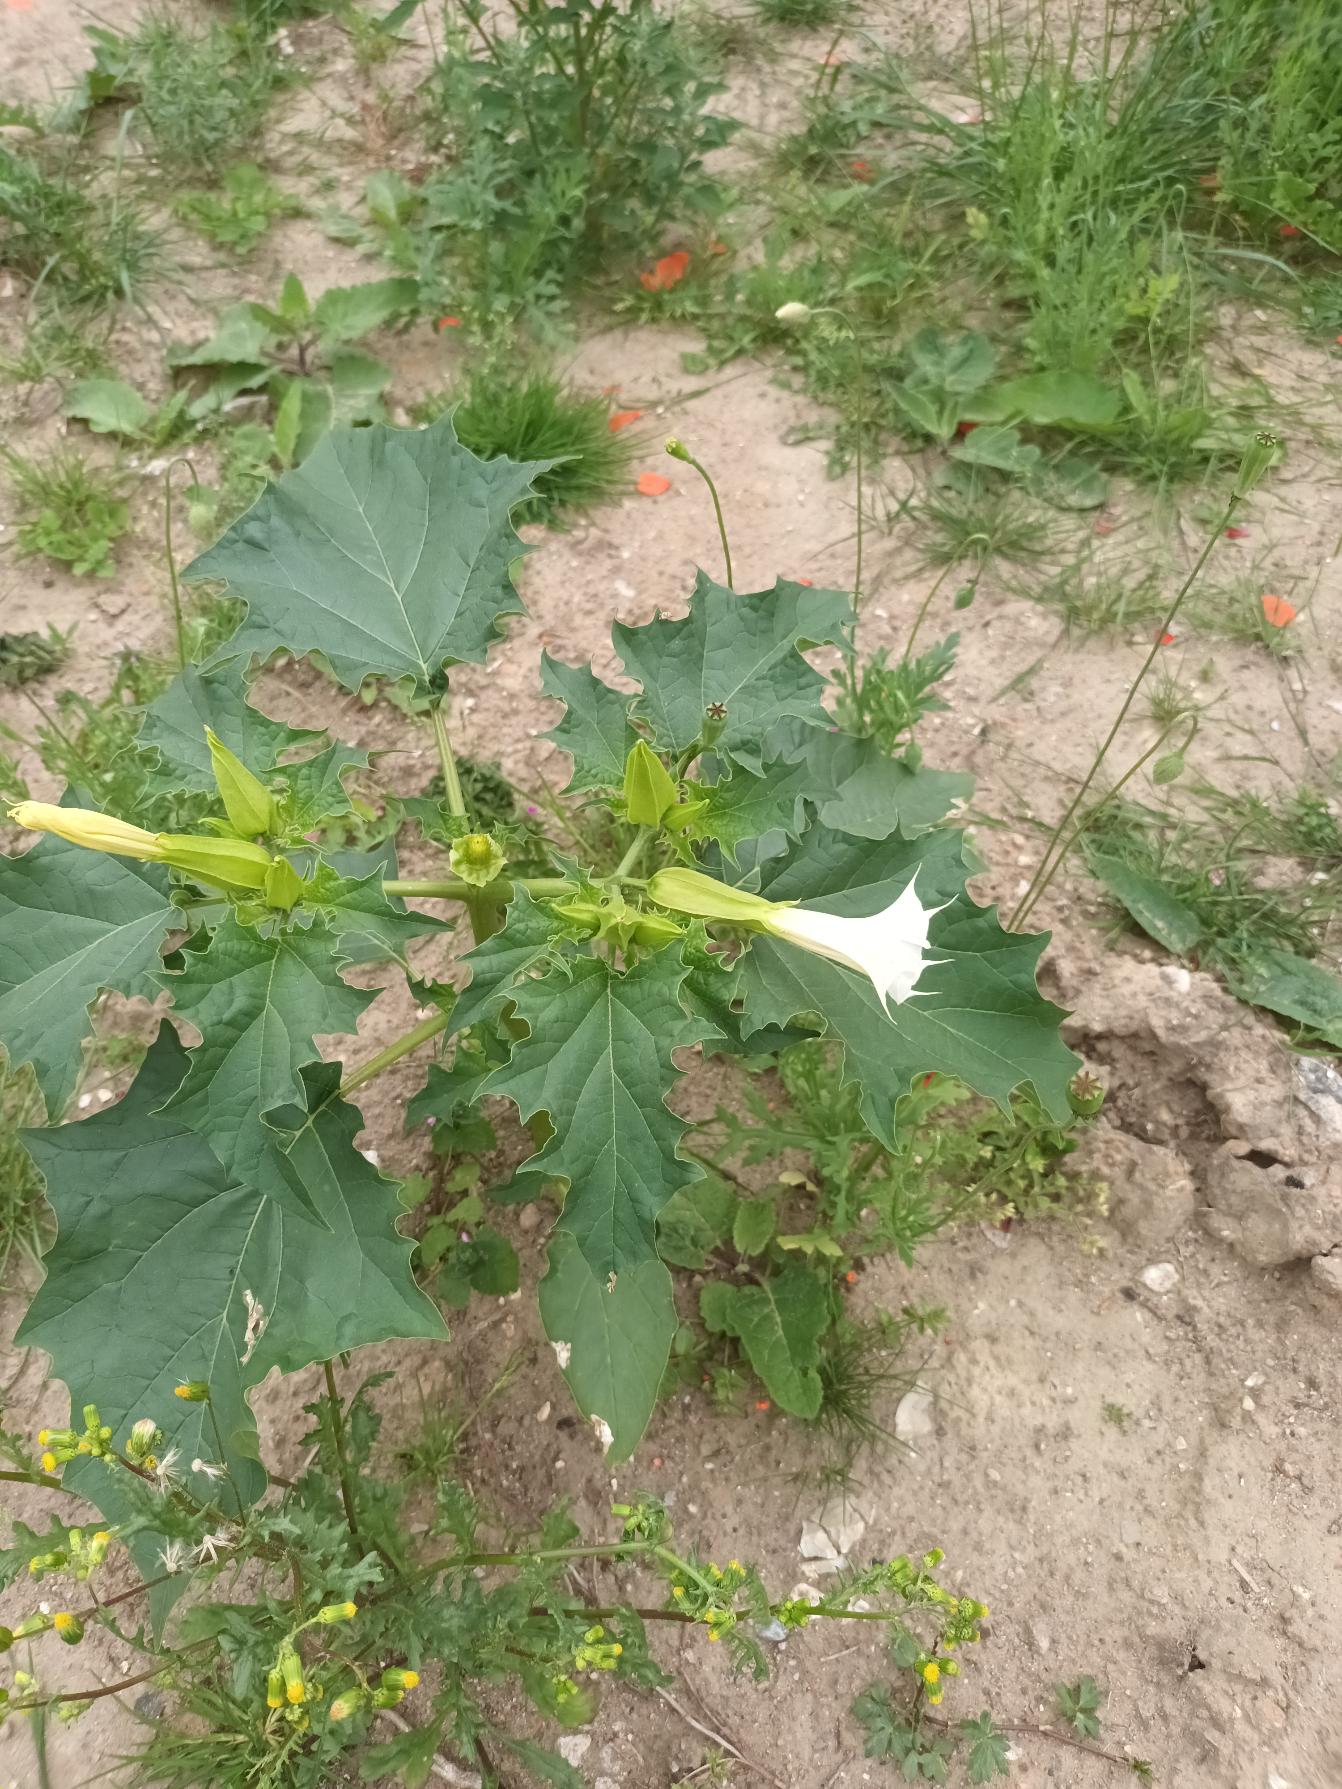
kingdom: Plantae
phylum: Tracheophyta
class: Magnoliopsida
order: Solanales
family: Solanaceae
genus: Datura
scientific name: Datura stramonium
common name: Pigæble
